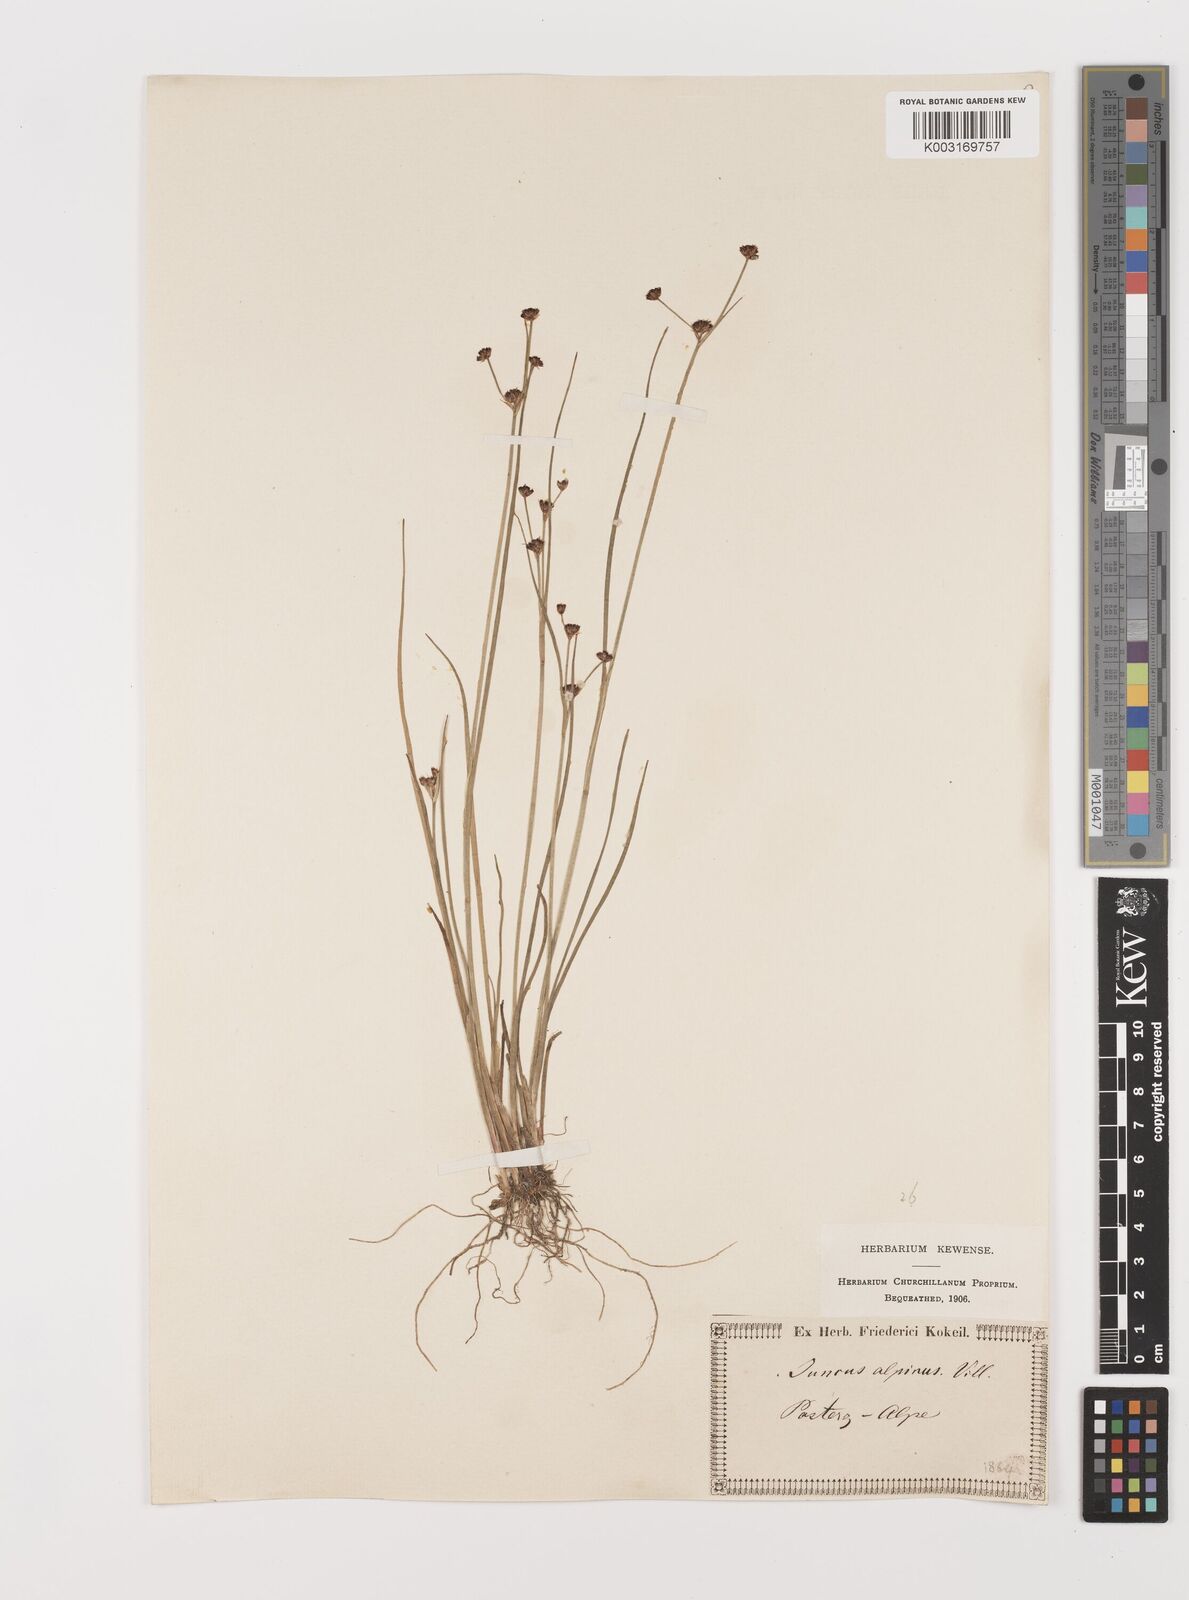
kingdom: Plantae
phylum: Tracheophyta
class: Liliopsida
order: Poales
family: Juncaceae
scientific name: Juncaceae
